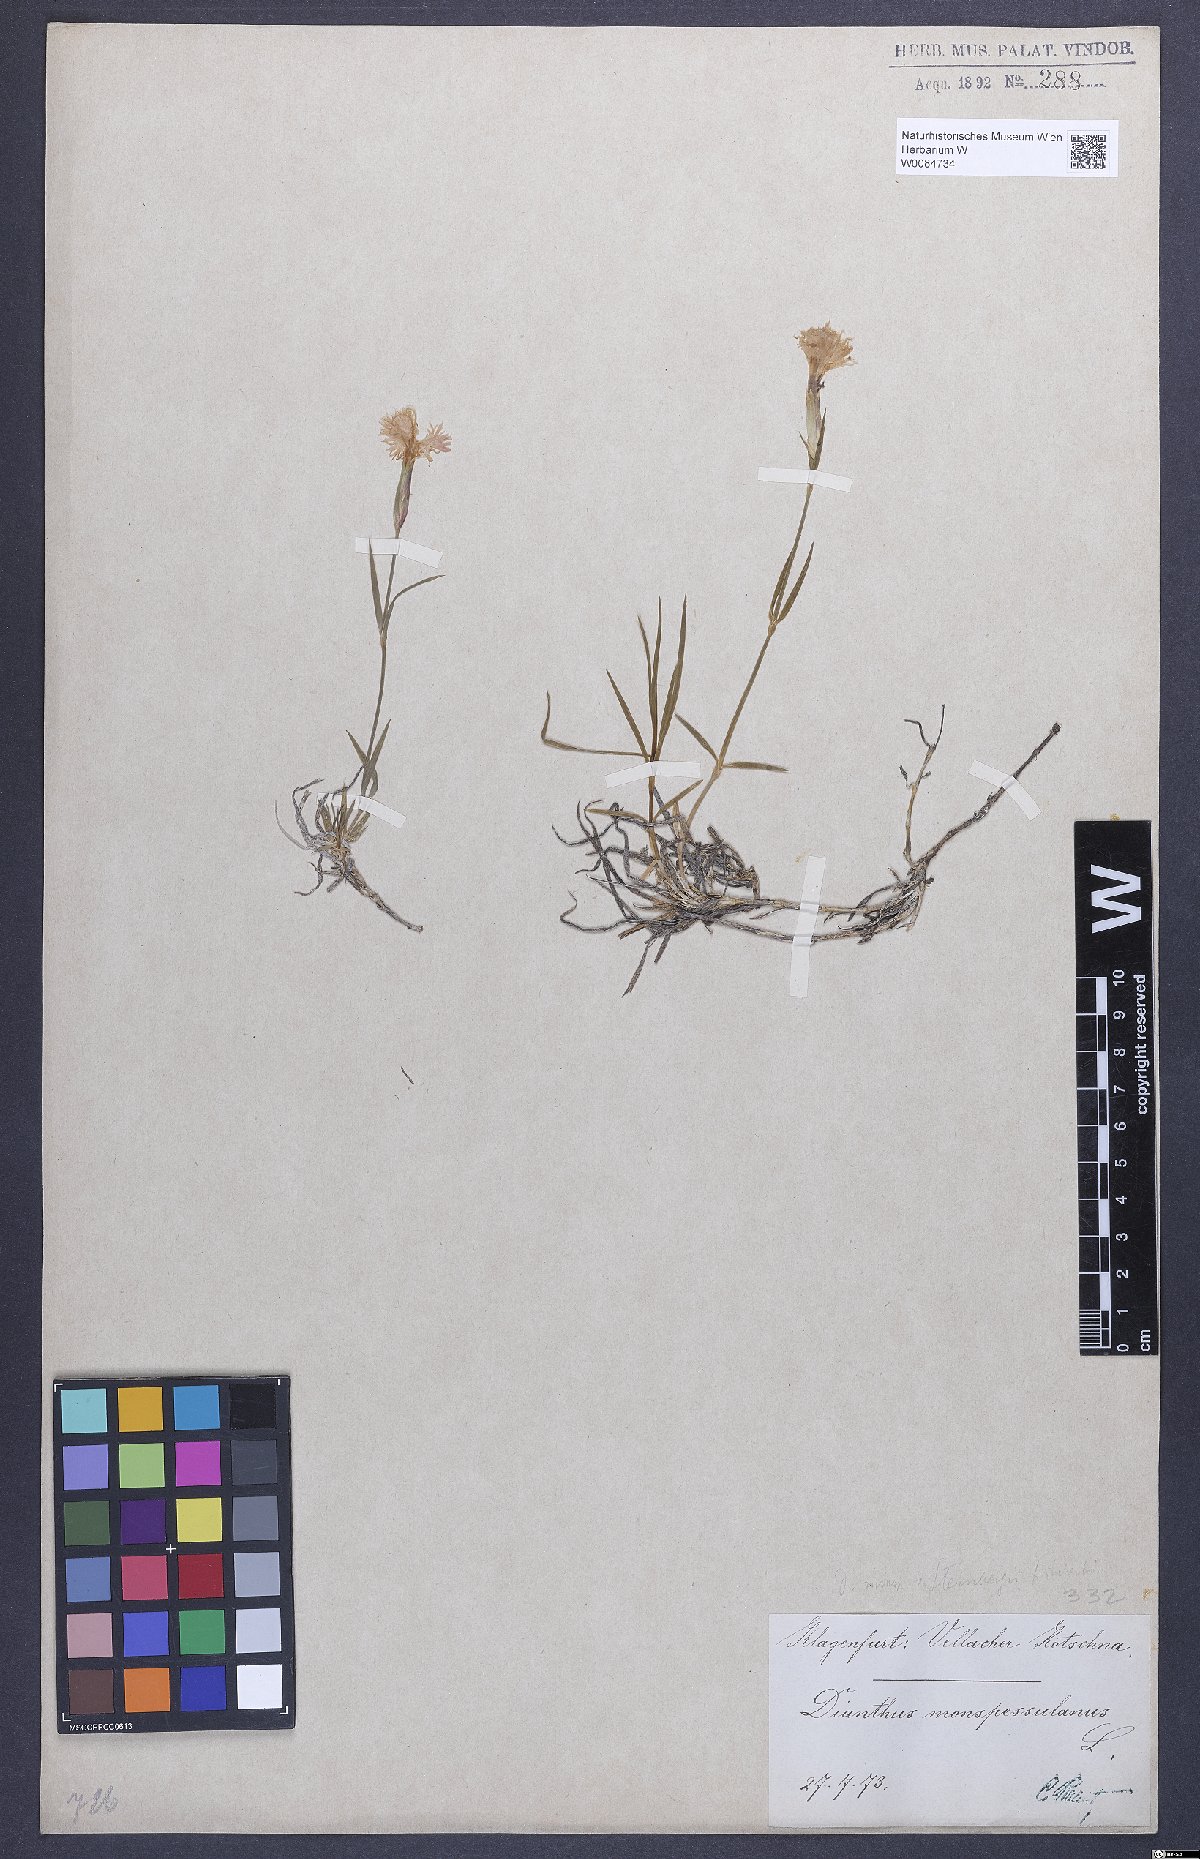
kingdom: Plantae
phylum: Tracheophyta
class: Magnoliopsida
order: Caryophyllales
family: Caryophyllaceae
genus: Dianthus
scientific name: Dianthus hyssopifolius
